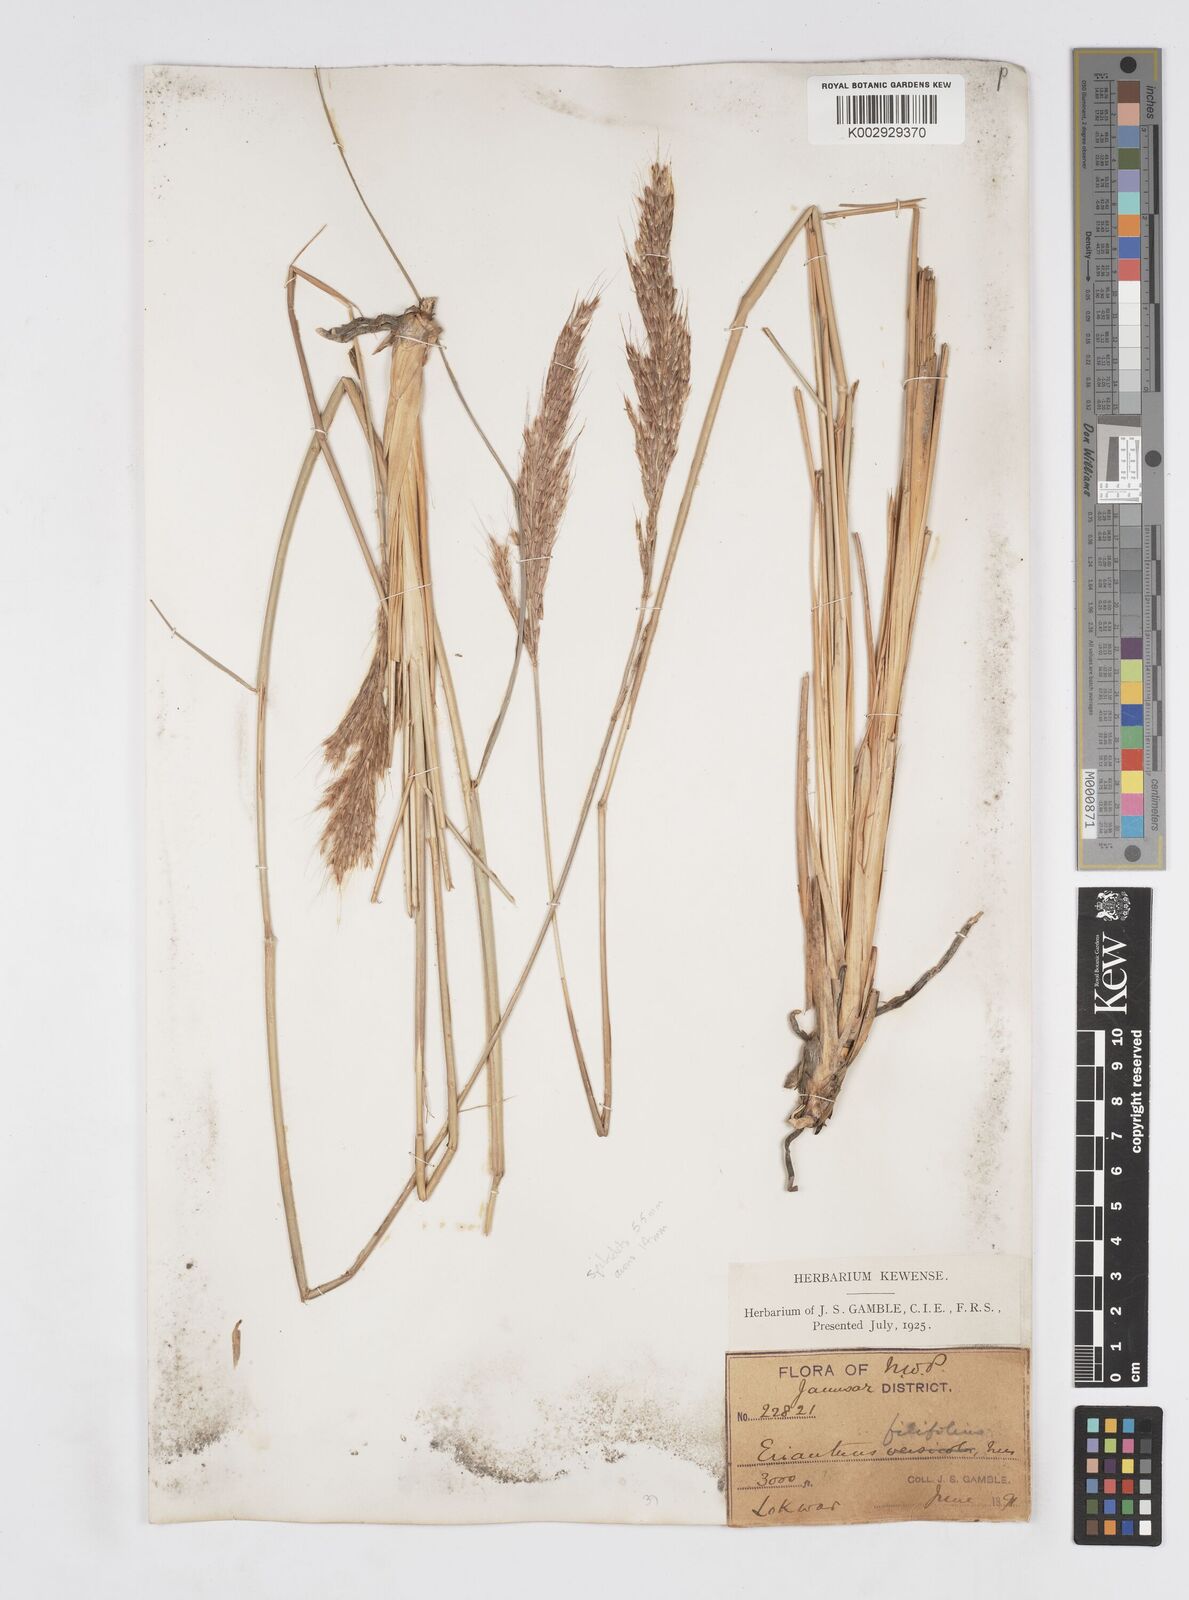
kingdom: Plantae
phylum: Tracheophyta
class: Liliopsida
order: Poales
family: Poaceae
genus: Saccharum
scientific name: Saccharum filifolium
